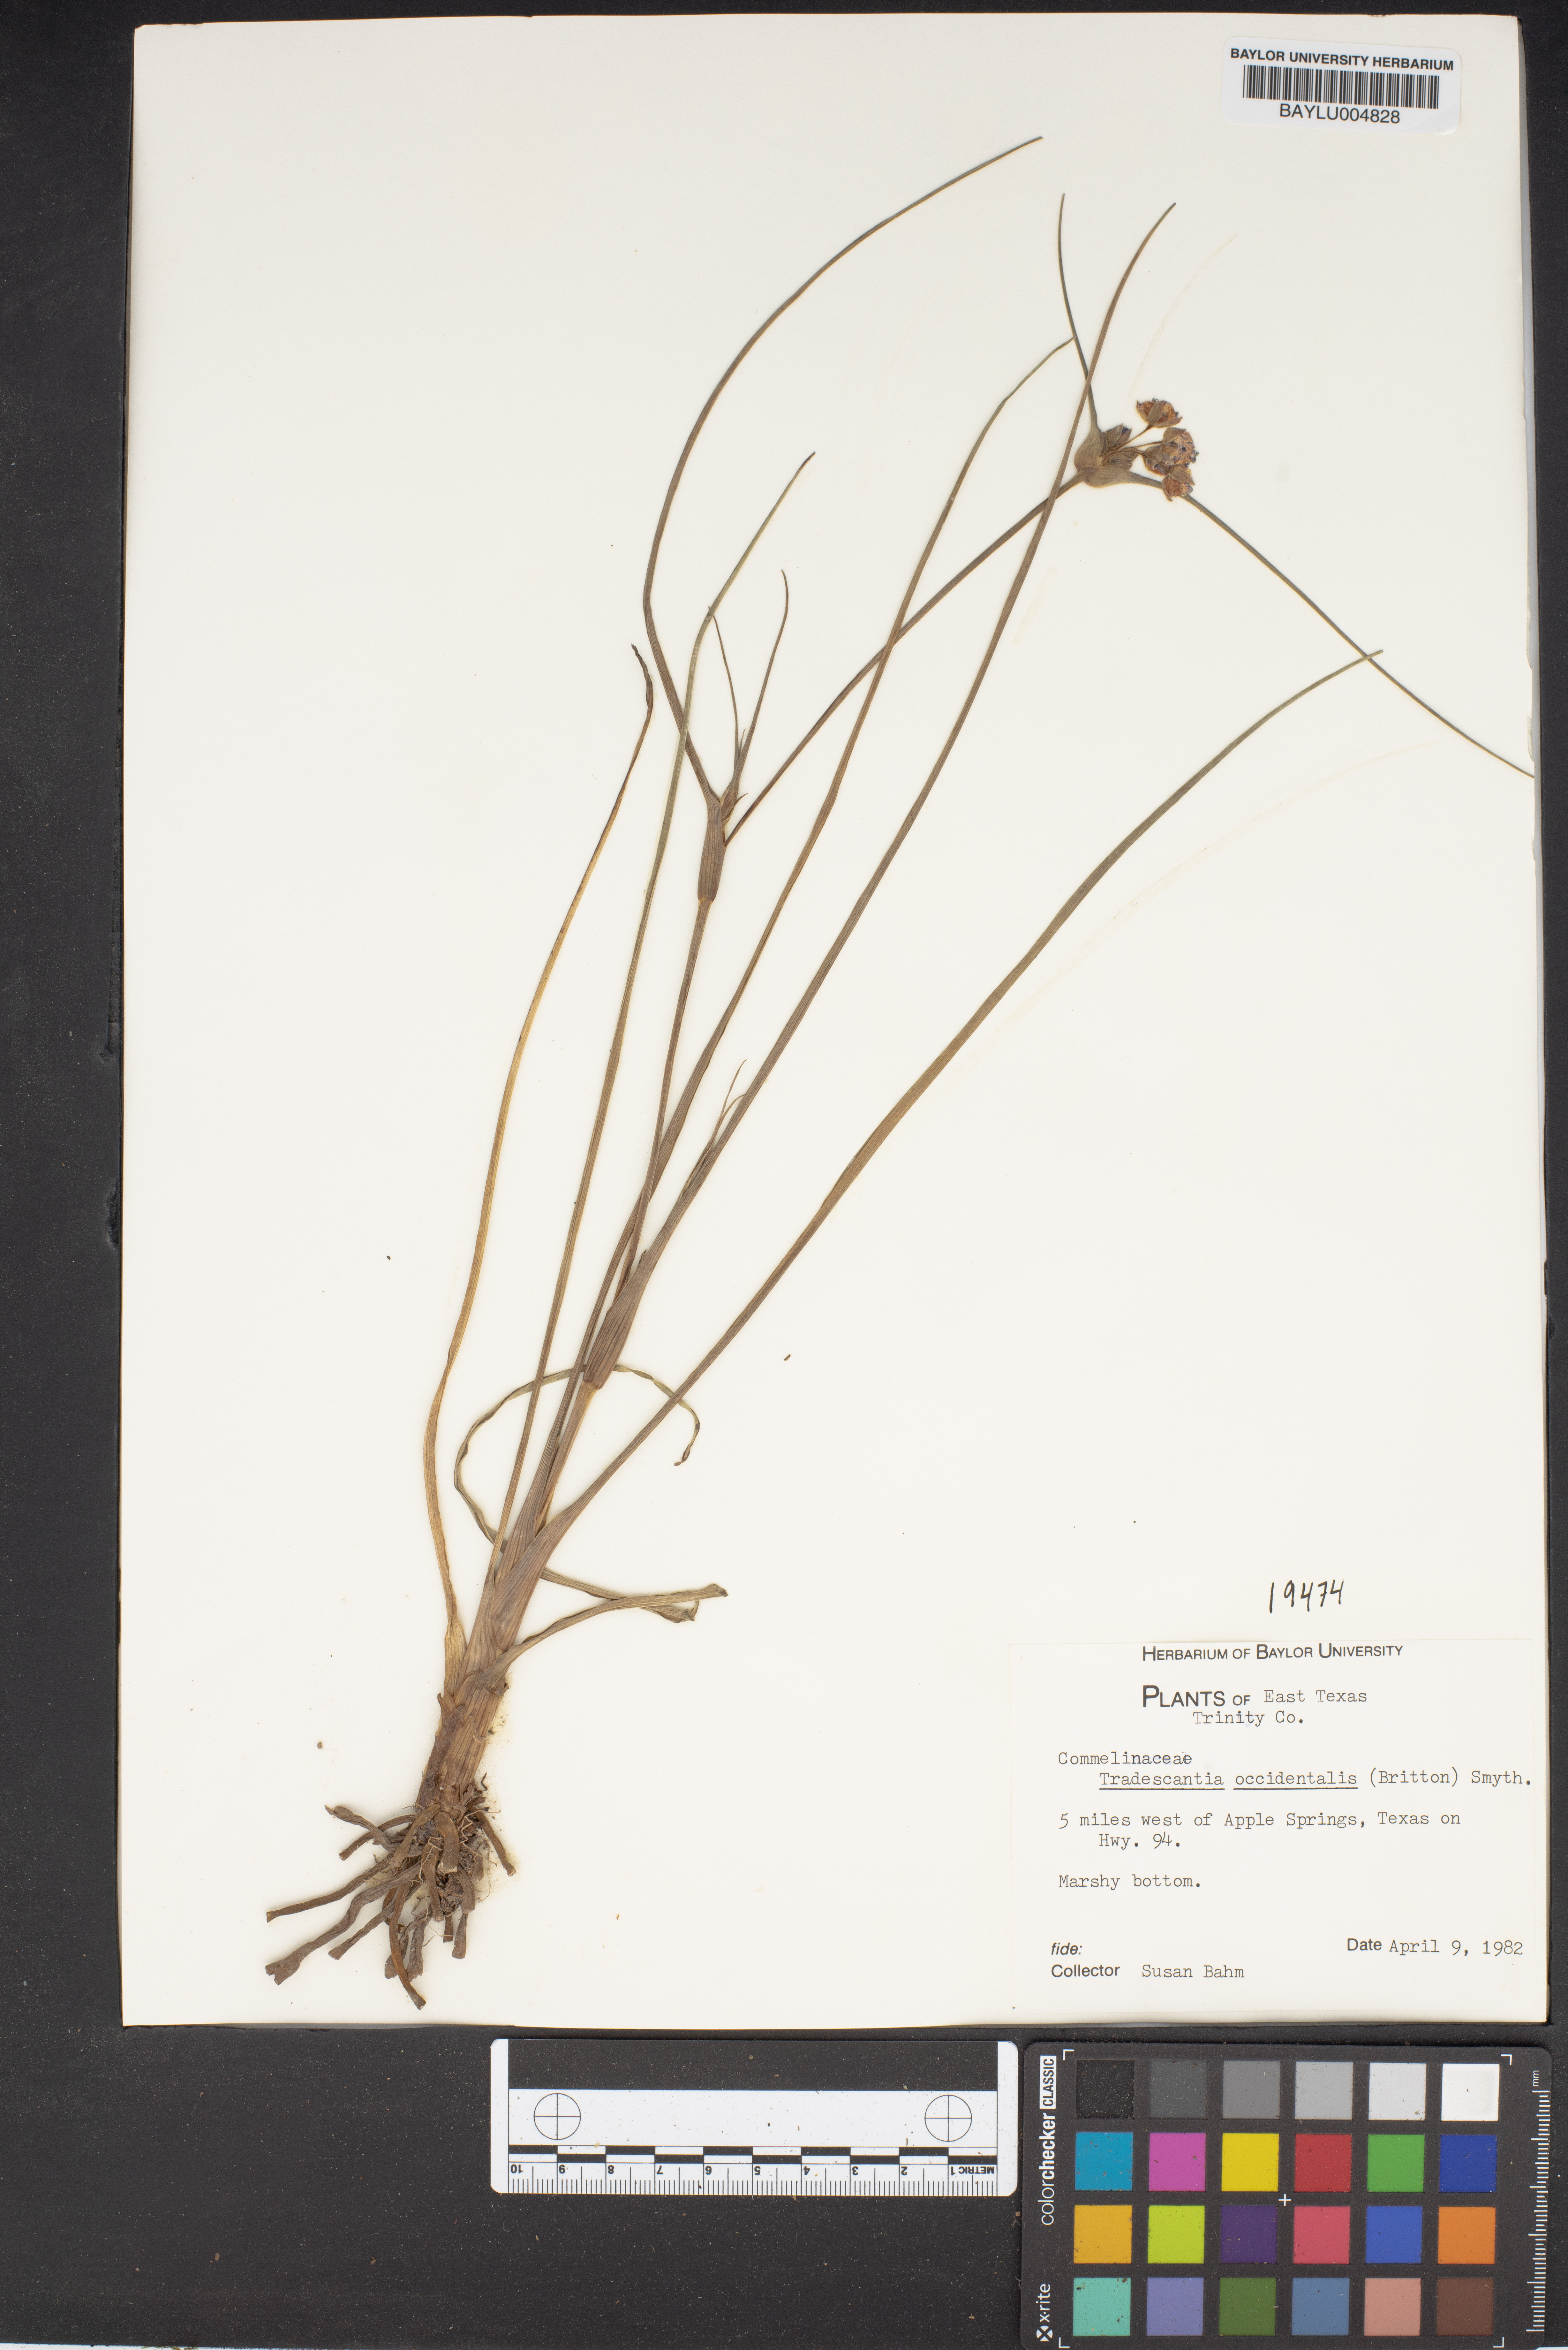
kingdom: Plantae
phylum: Tracheophyta
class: Liliopsida
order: Commelinales
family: Commelinaceae
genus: Tradescantia
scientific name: Tradescantia occidentalis
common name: Prairie spiderwort
